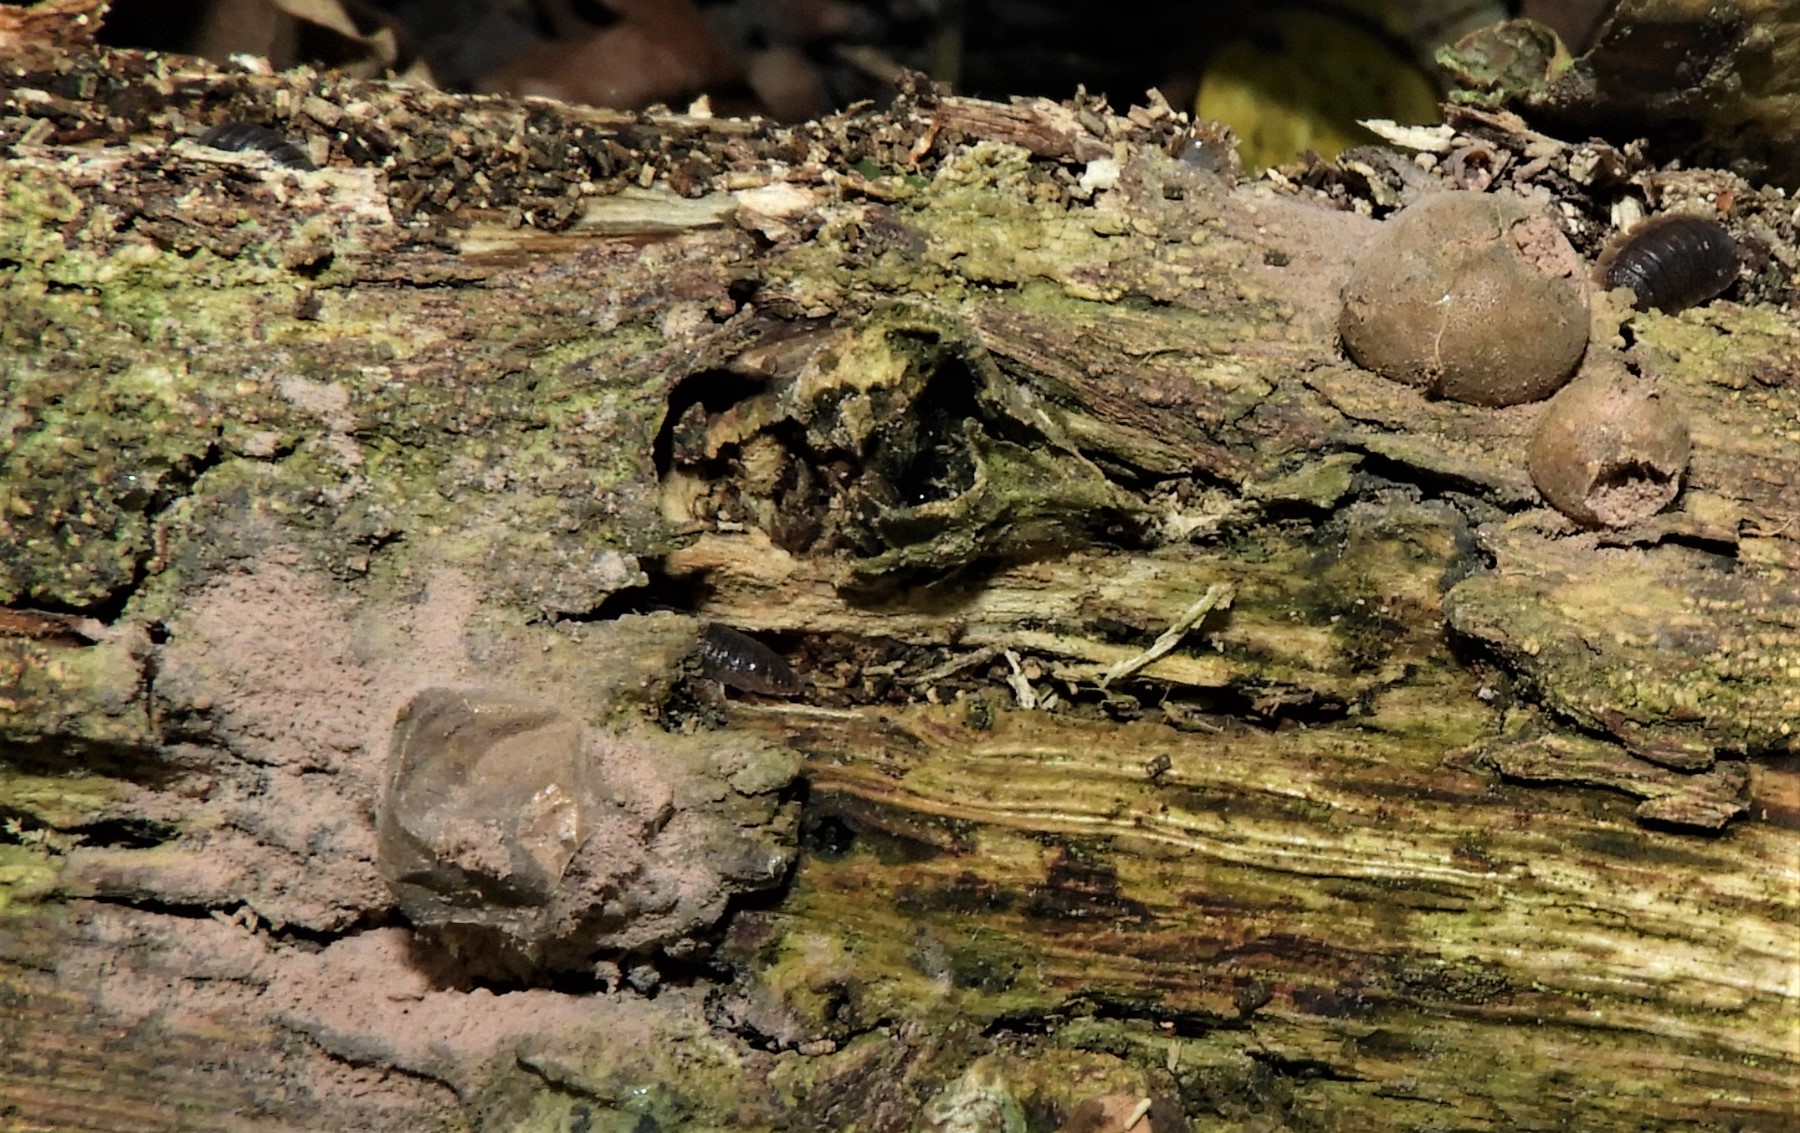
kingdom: Protozoa
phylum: Mycetozoa
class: Myxomycetes
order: Cribrariales
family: Tubiferaceae
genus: Lycogala
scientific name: Lycogala epidendrum
